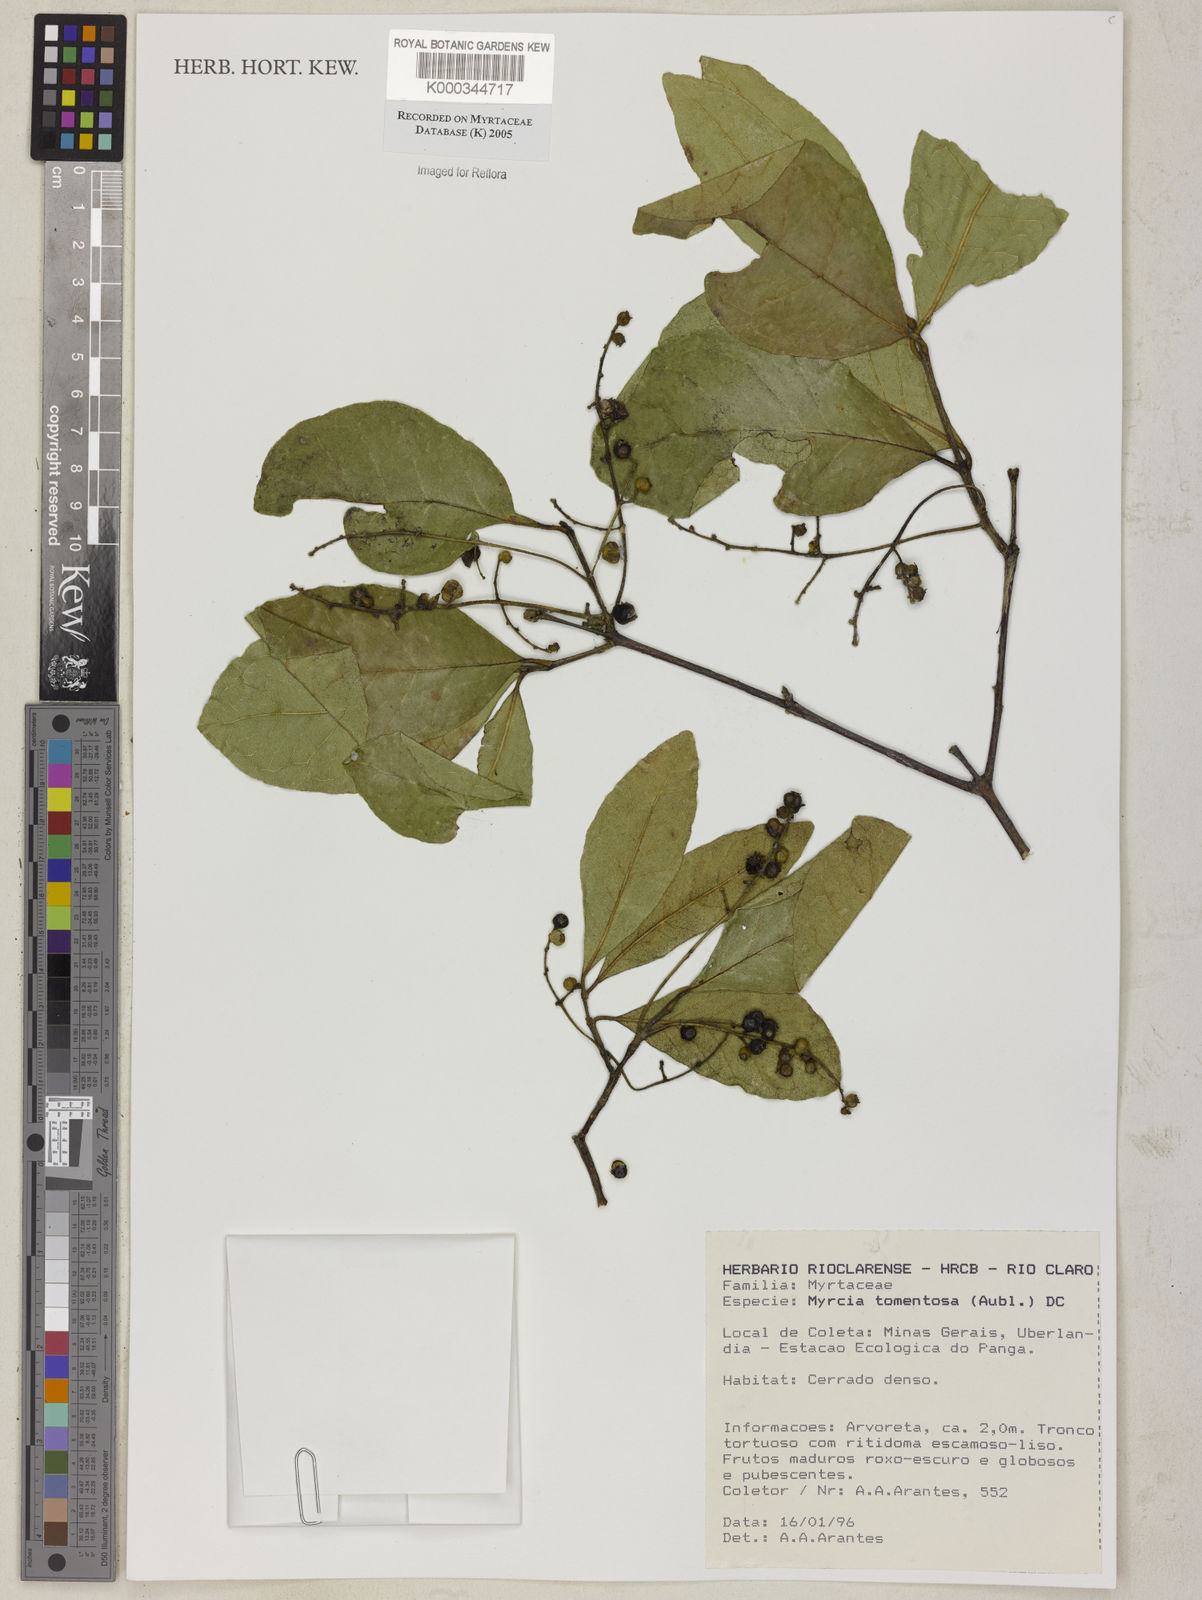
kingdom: Plantae
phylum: Tracheophyta
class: Magnoliopsida
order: Myrtales
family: Myrtaceae
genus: Myrcia
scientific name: Myrcia tomentosa
